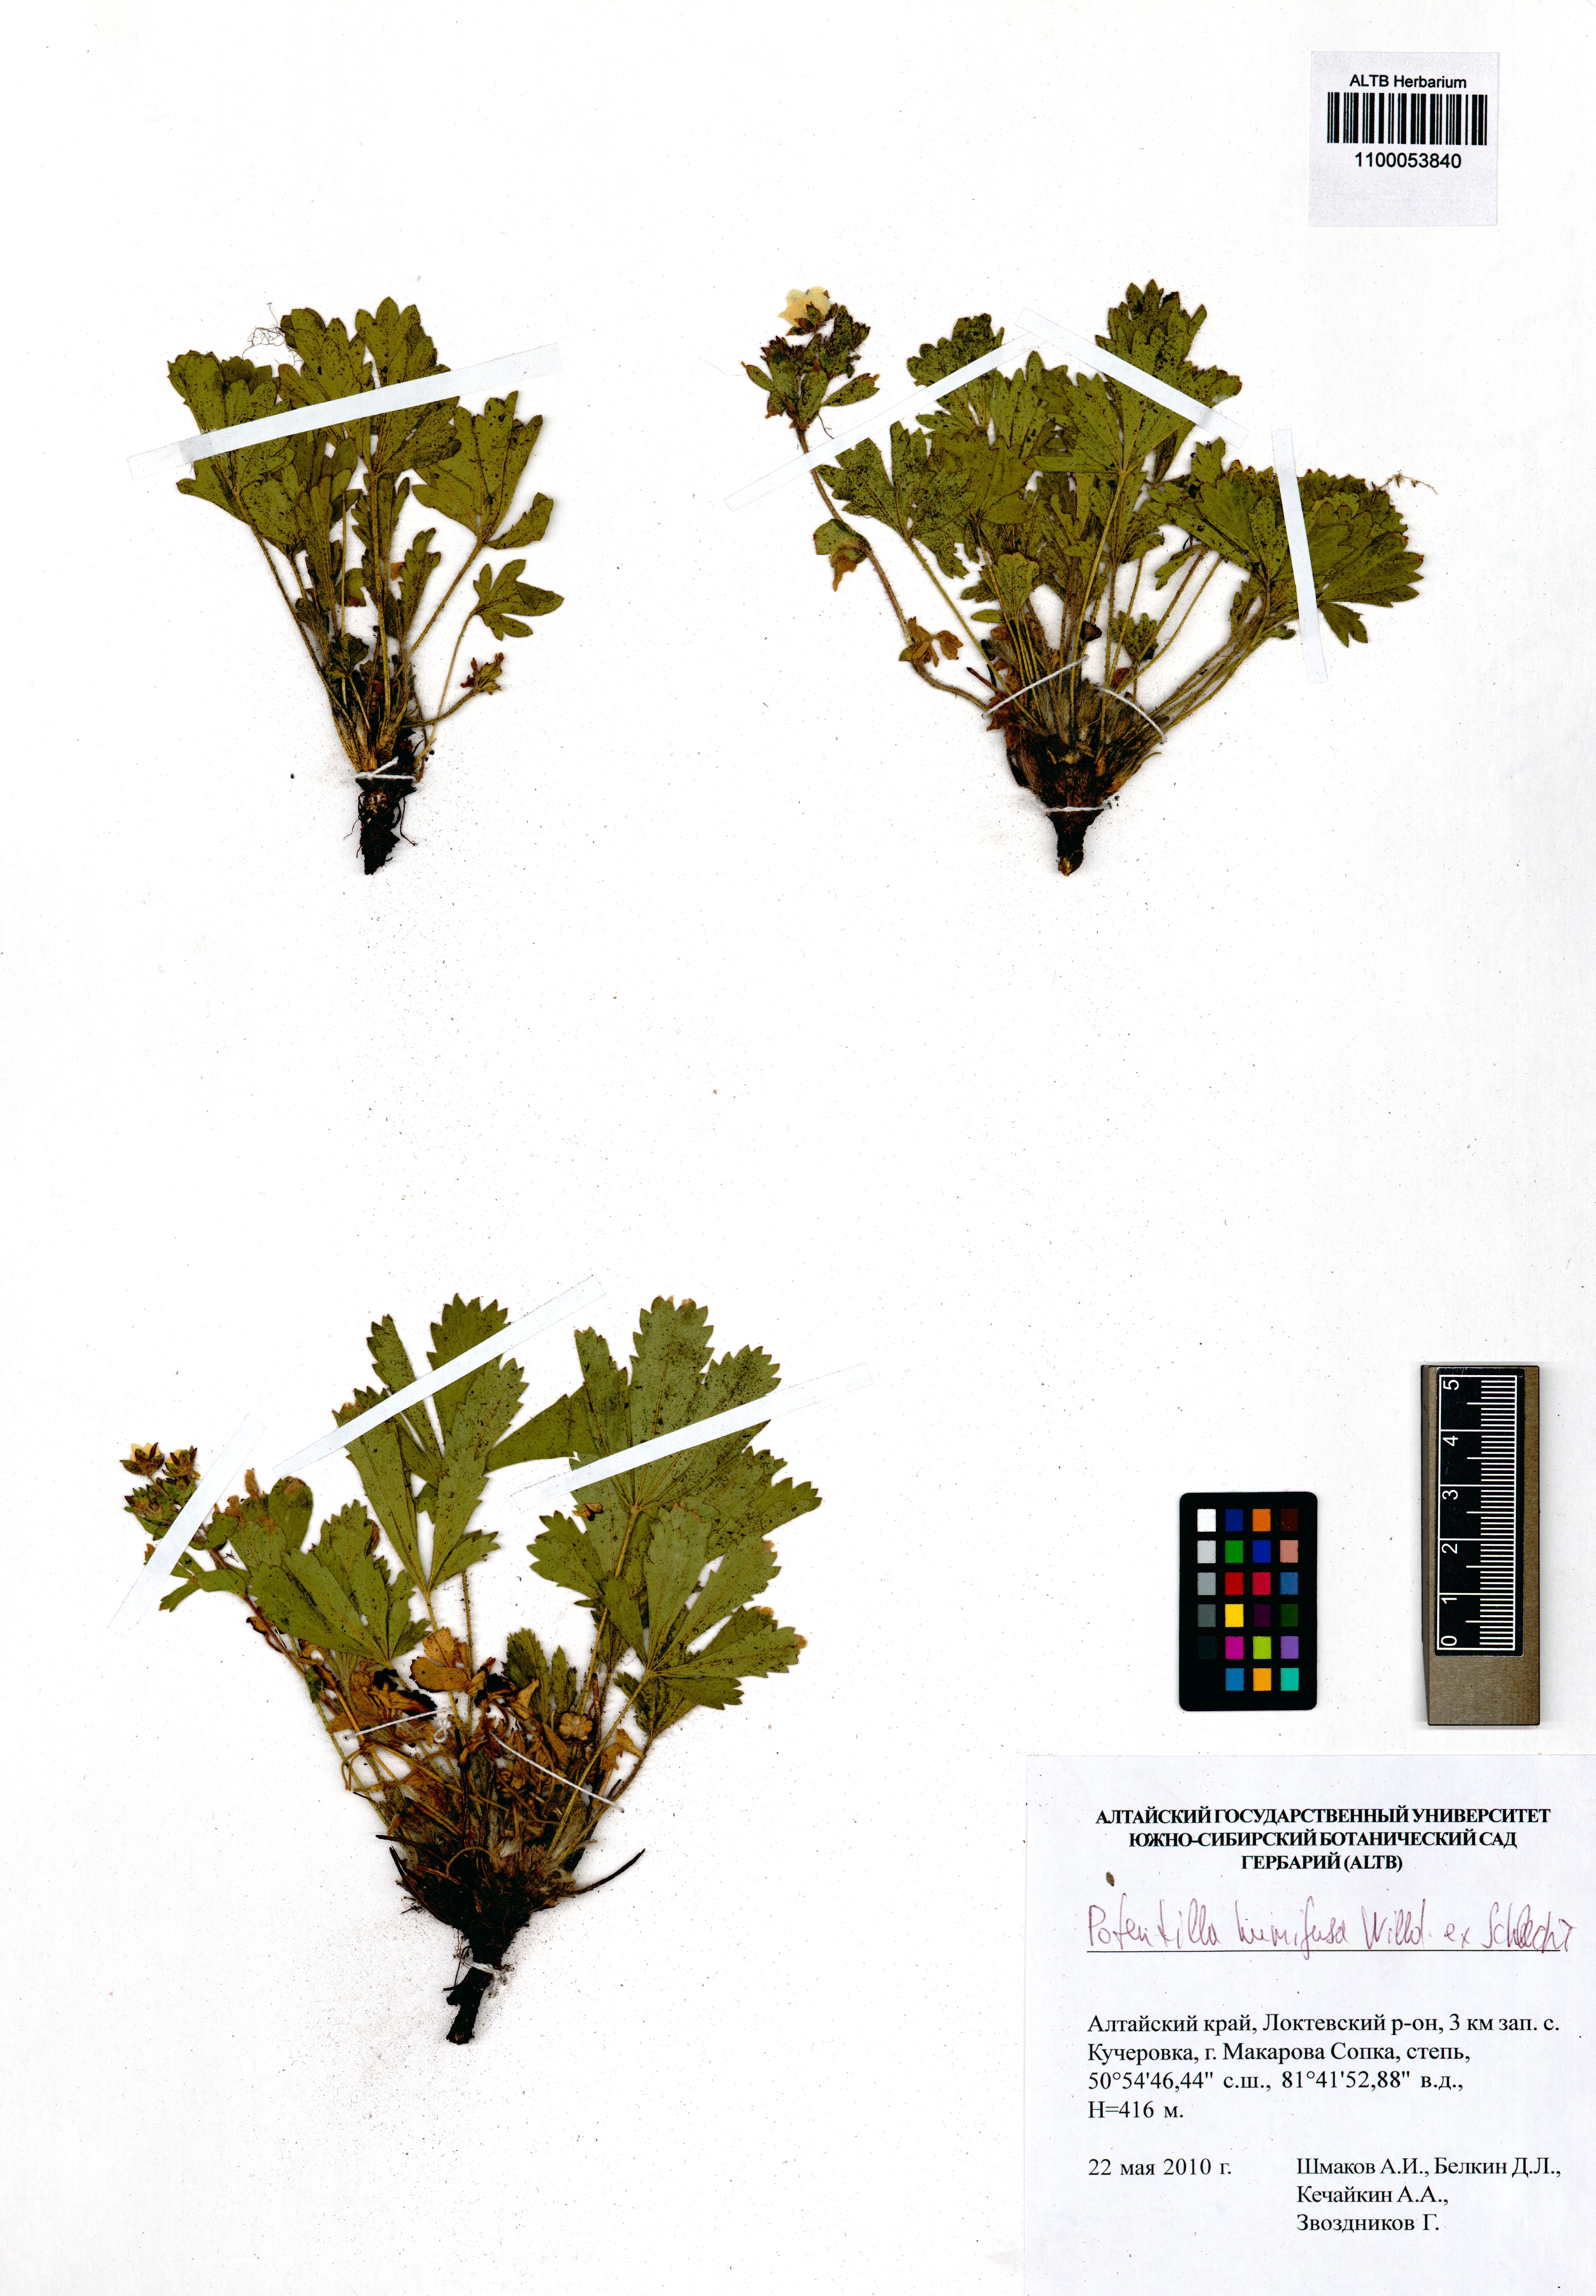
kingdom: Plantae
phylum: Tracheophyta
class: Magnoliopsida
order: Rosales
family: Rosaceae
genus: Potentilla
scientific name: Potentilla humifusa
